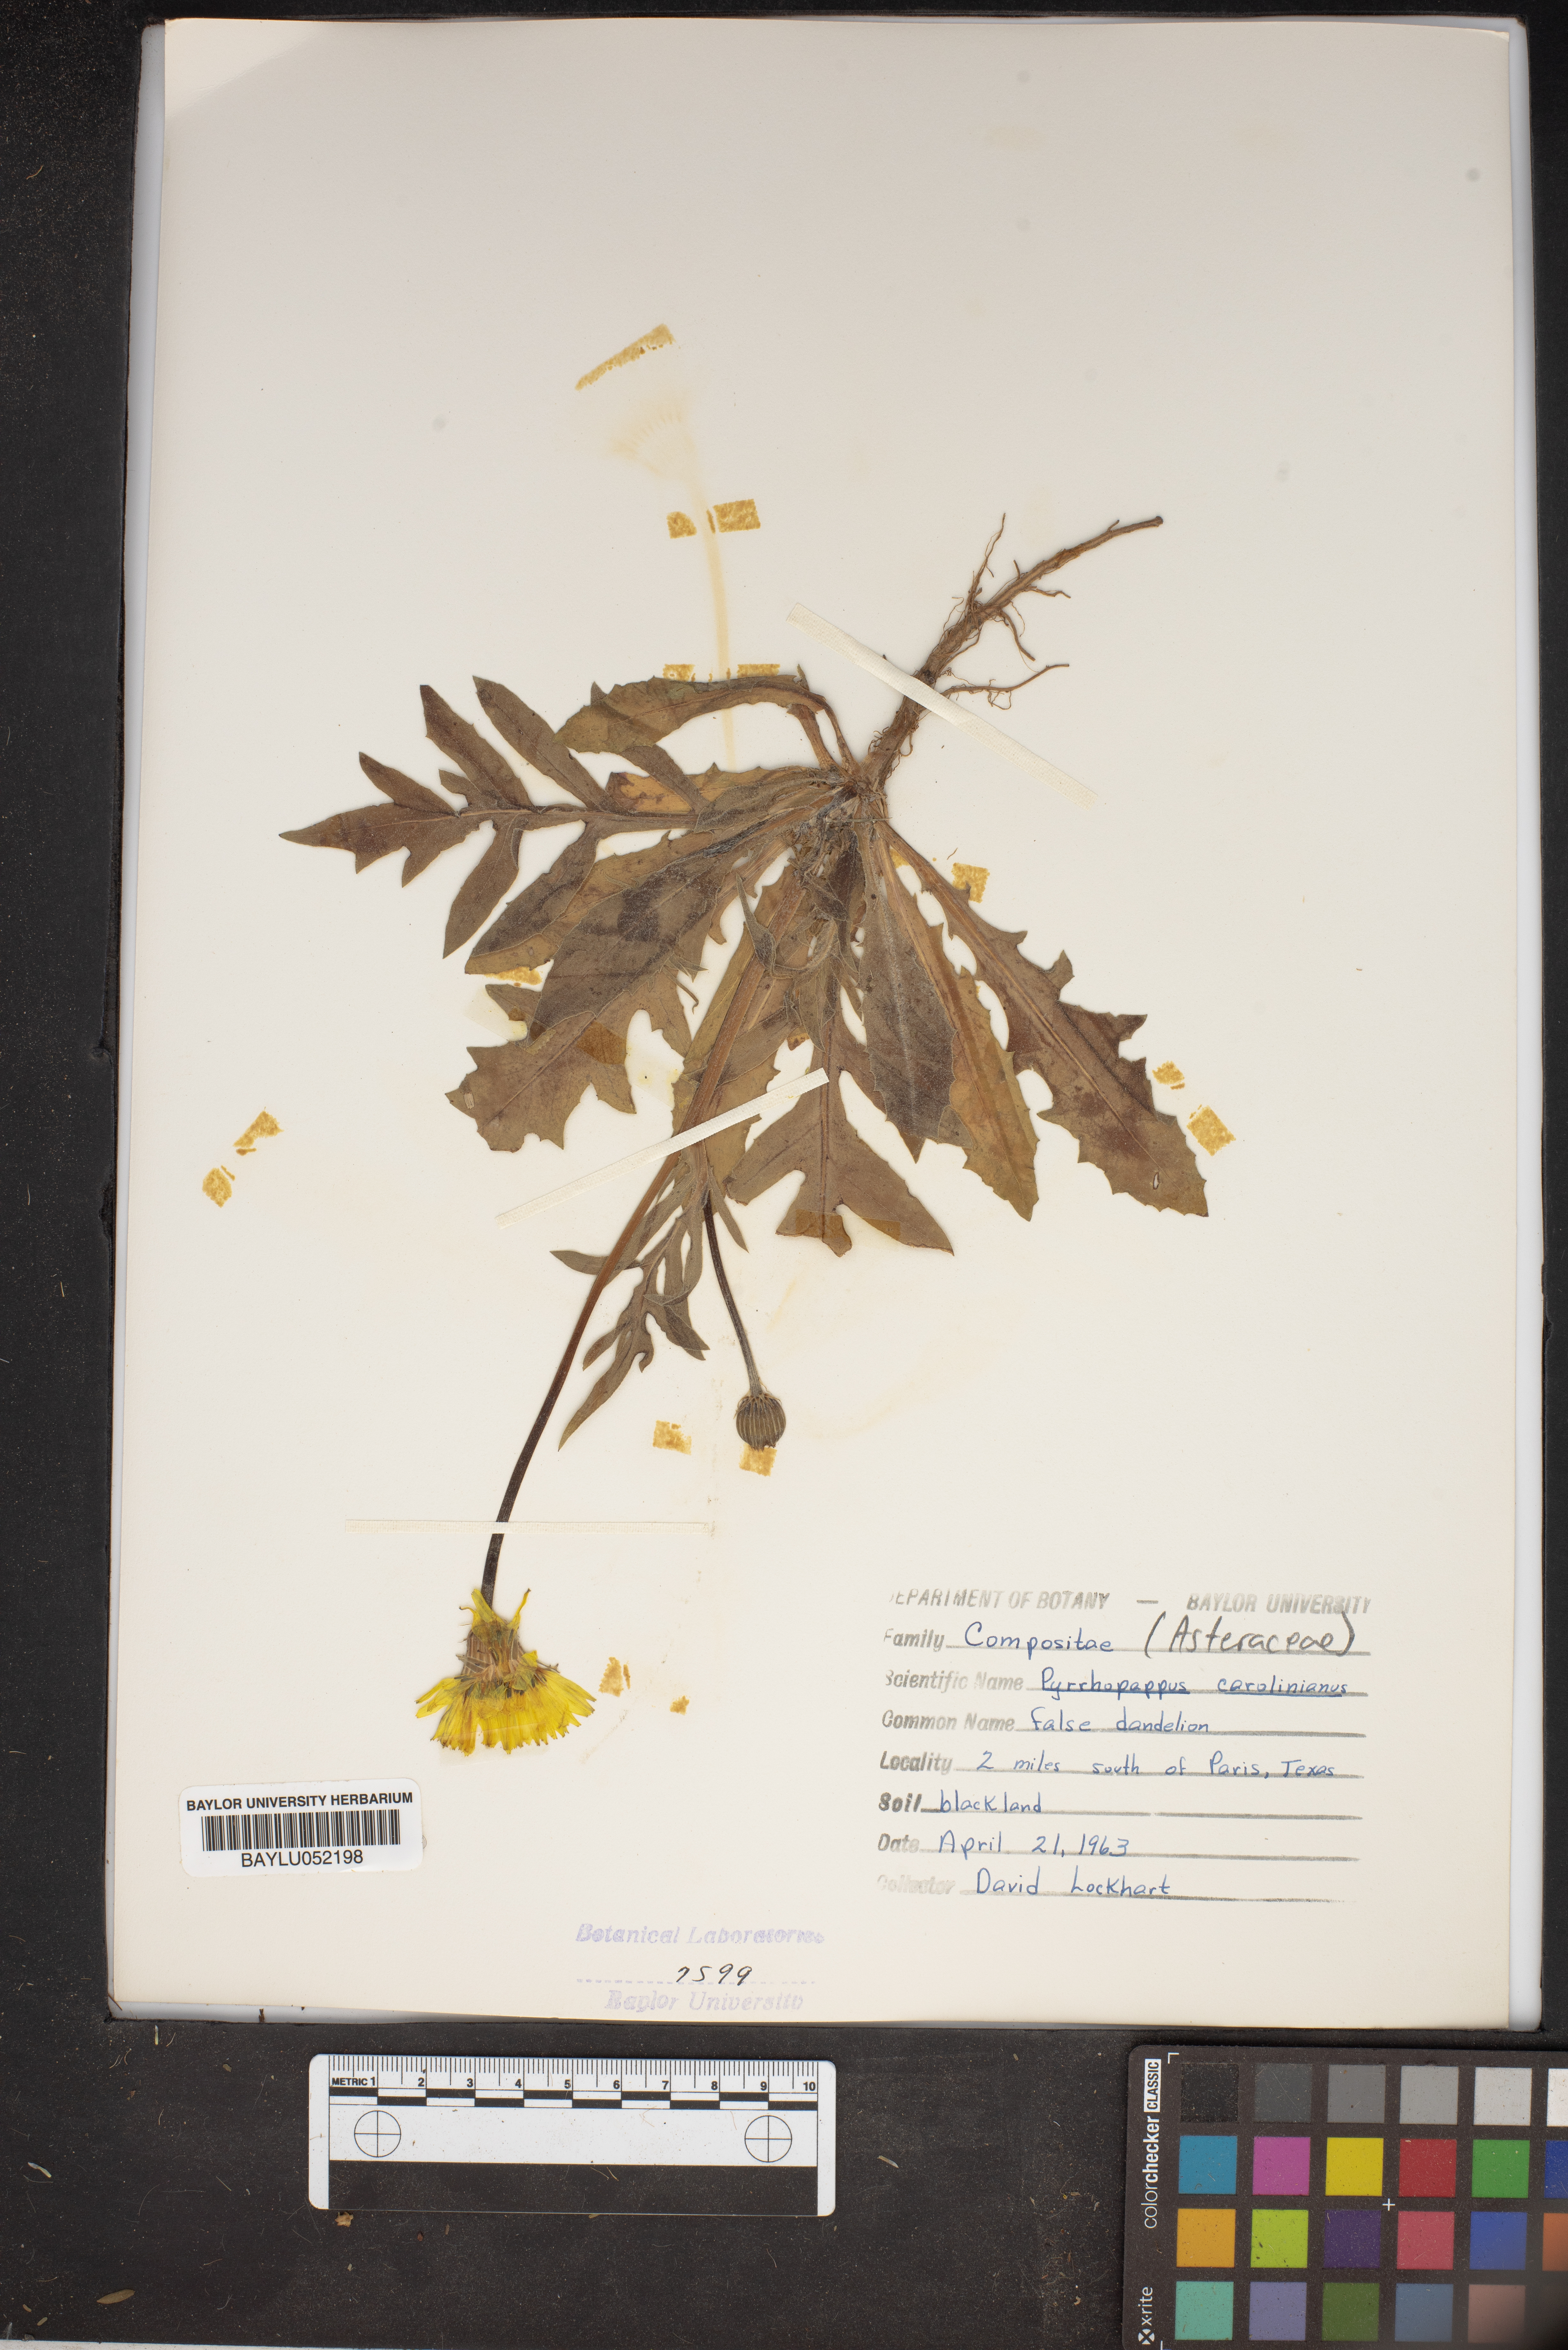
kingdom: Plantae
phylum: Tracheophyta
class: Magnoliopsida
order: Asterales
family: Asteraceae
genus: Pyrrhopappus
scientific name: Pyrrhopappus carolinianus
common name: Carolina desert-chicory
